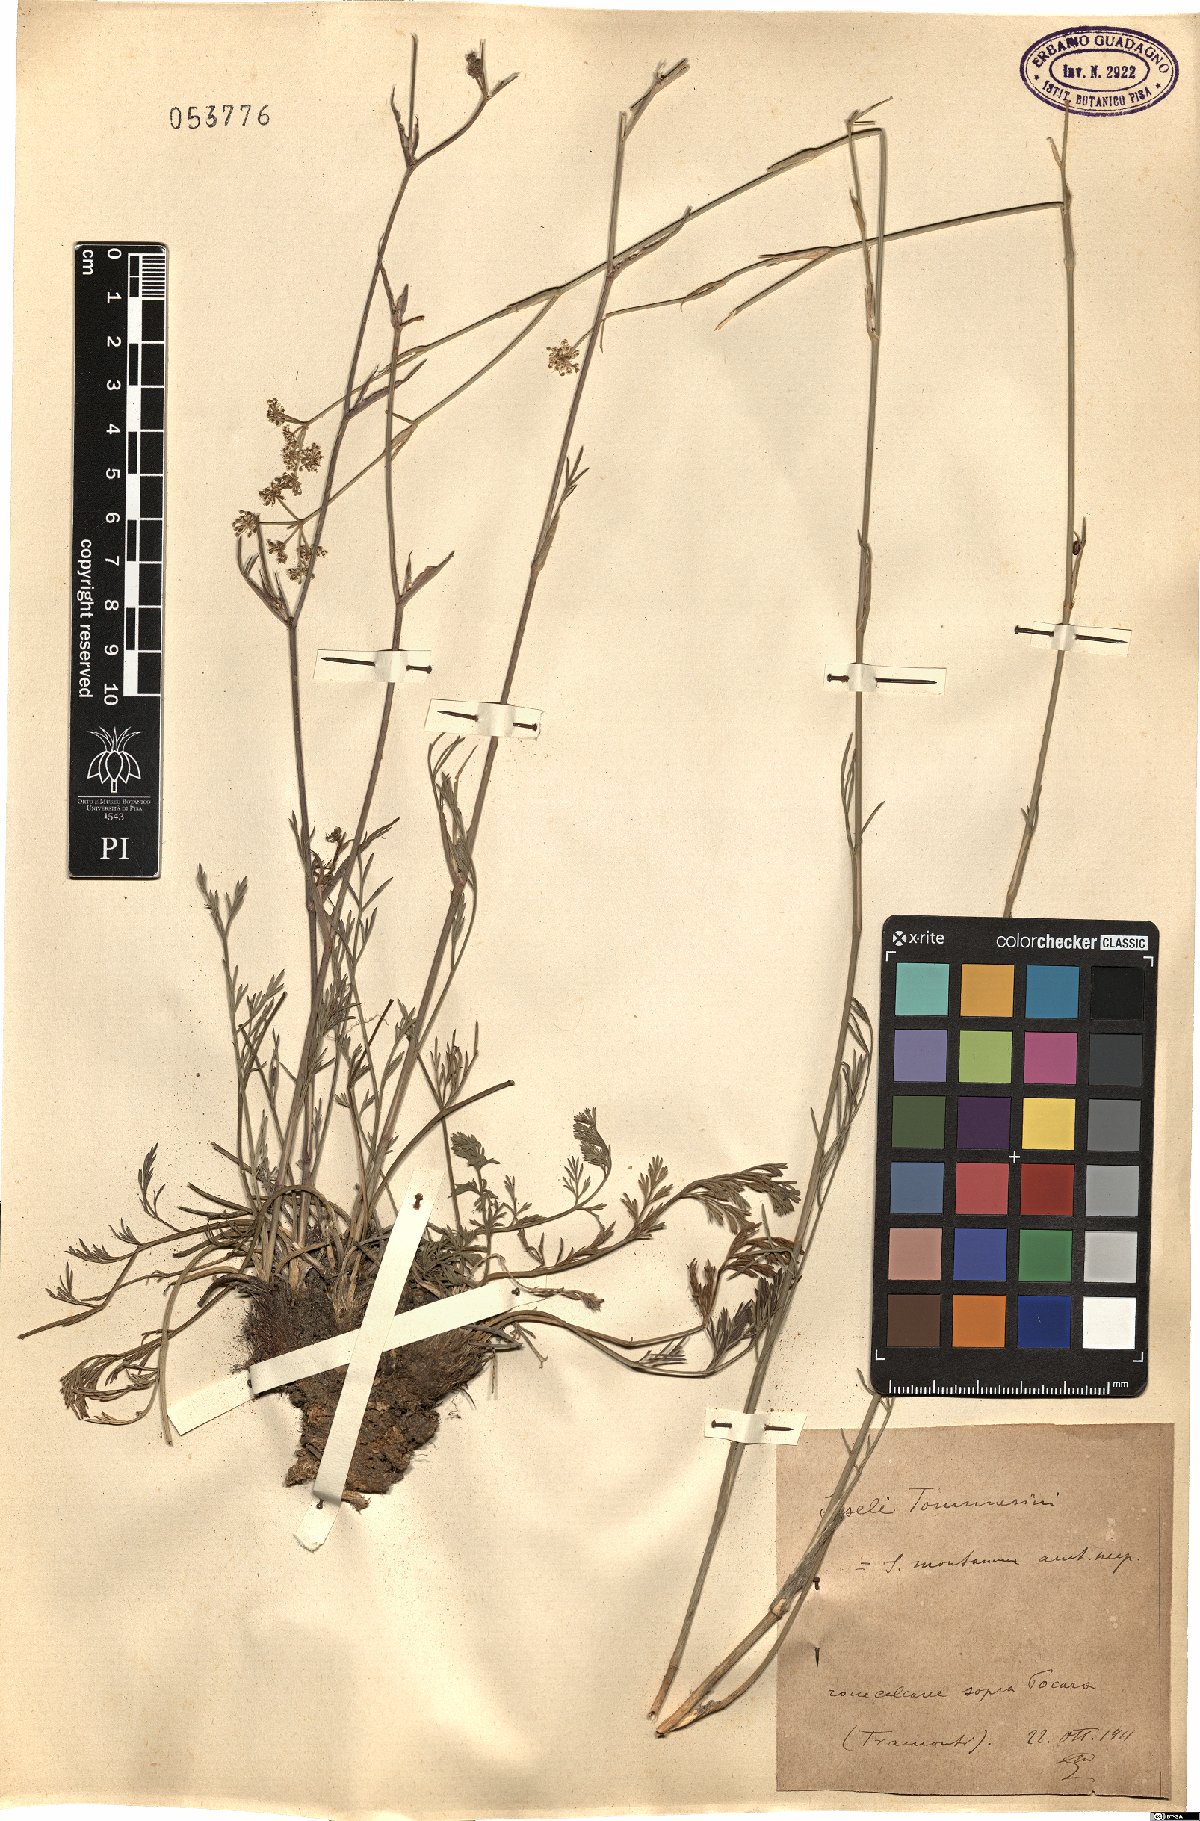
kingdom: Plantae
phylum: Tracheophyta
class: Magnoliopsida
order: Apiales
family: Apiaceae
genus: Seseli
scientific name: Seseli montanum
